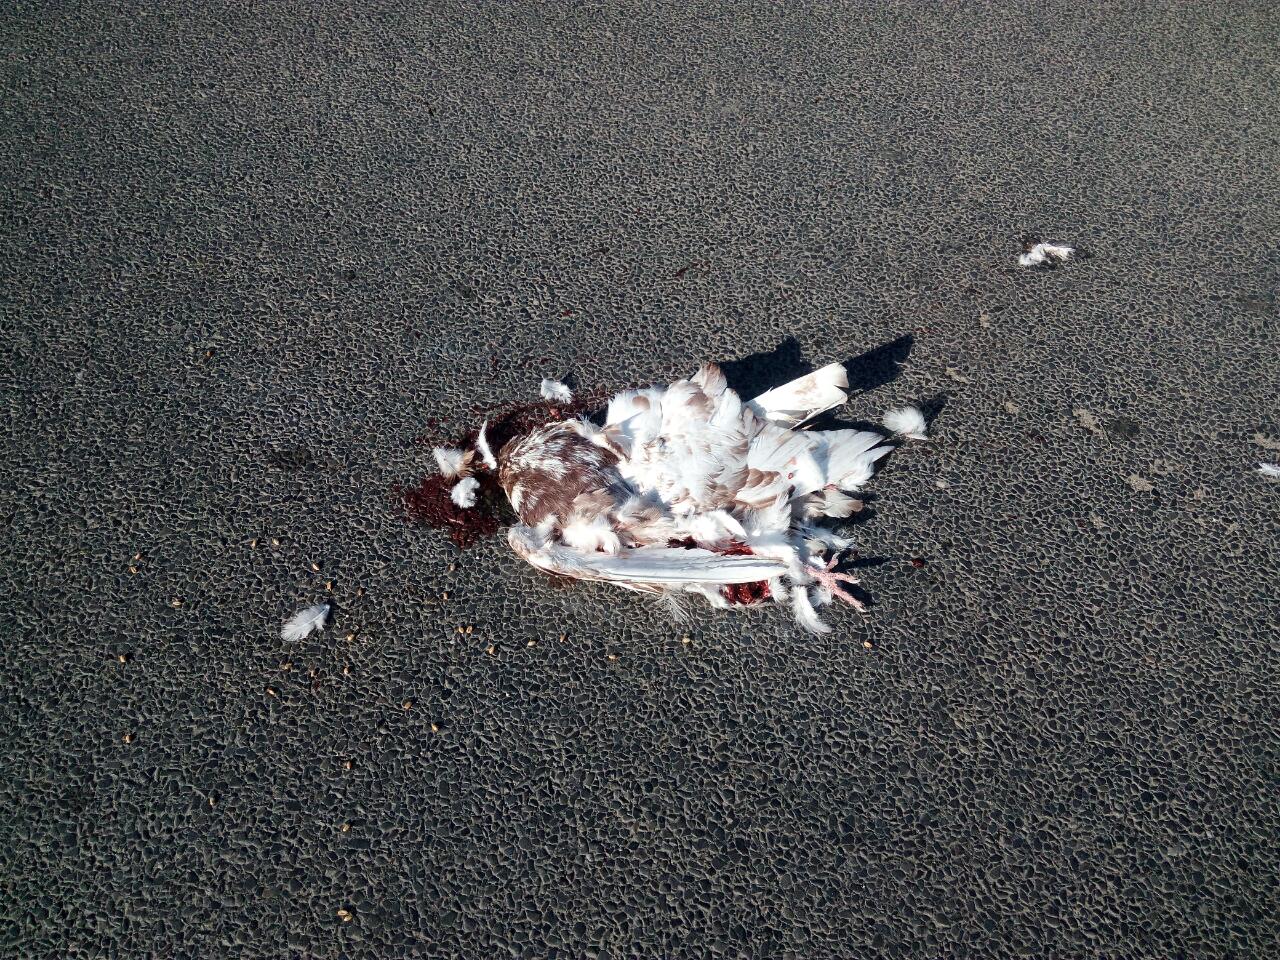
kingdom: Animalia
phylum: Chordata
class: Aves
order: Columbiformes
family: Columbidae
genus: Columba
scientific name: Columba livia
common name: Rock pigeon
